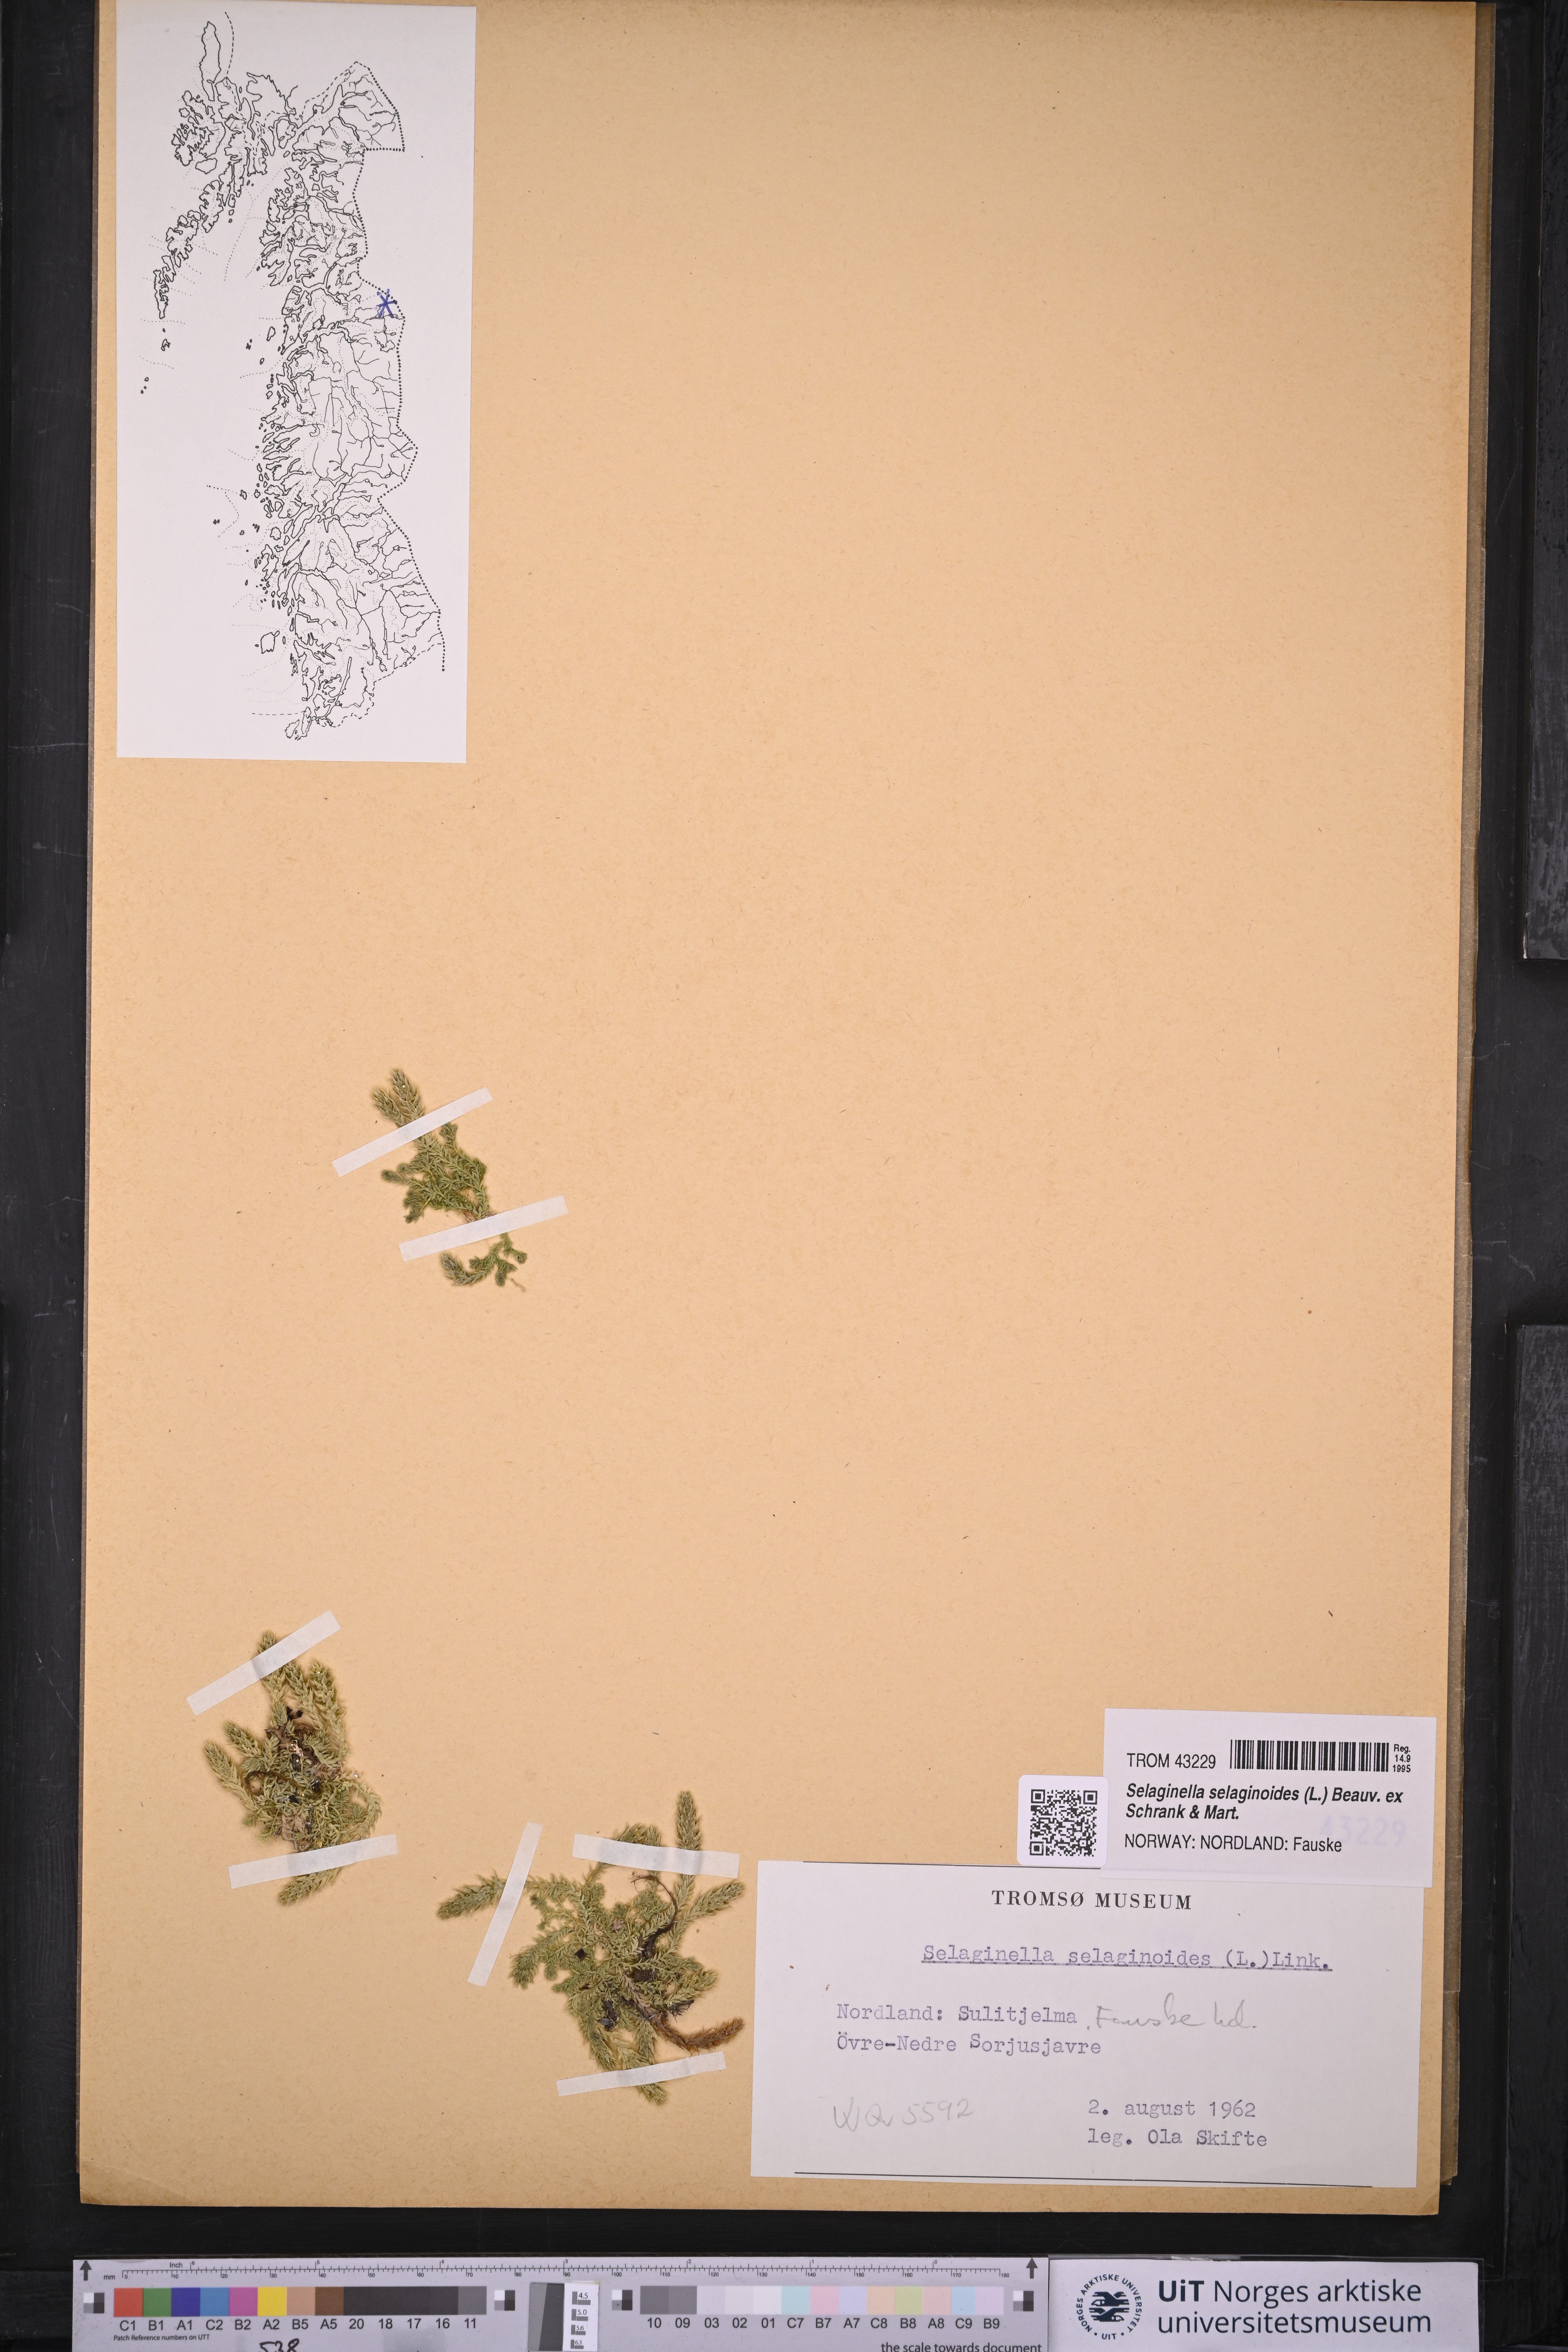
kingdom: Plantae
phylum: Tracheophyta
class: Lycopodiopsida
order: Selaginellales
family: Selaginellaceae
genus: Selaginella
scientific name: Selaginella selaginoides
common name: Prickly mountain-moss
